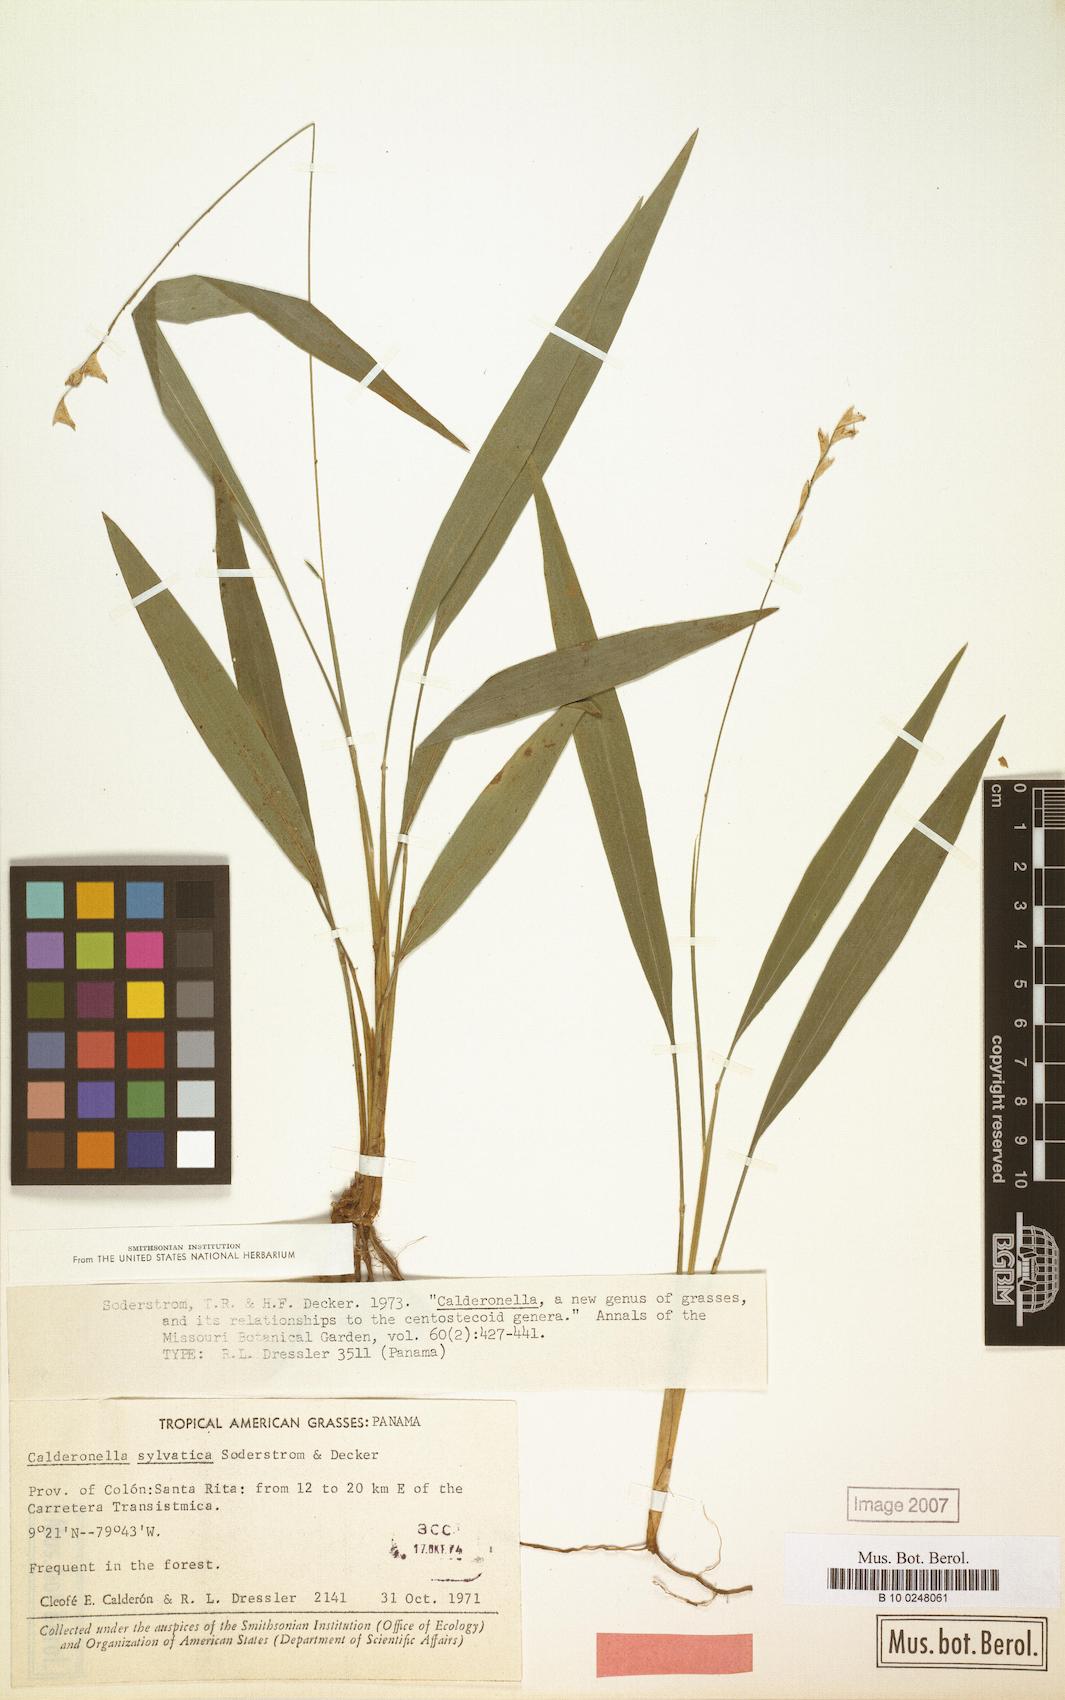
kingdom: Plantae
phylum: Tracheophyta
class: Liliopsida
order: Poales
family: Poaceae
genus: Zeugites
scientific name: Zeugites sylvaticus
